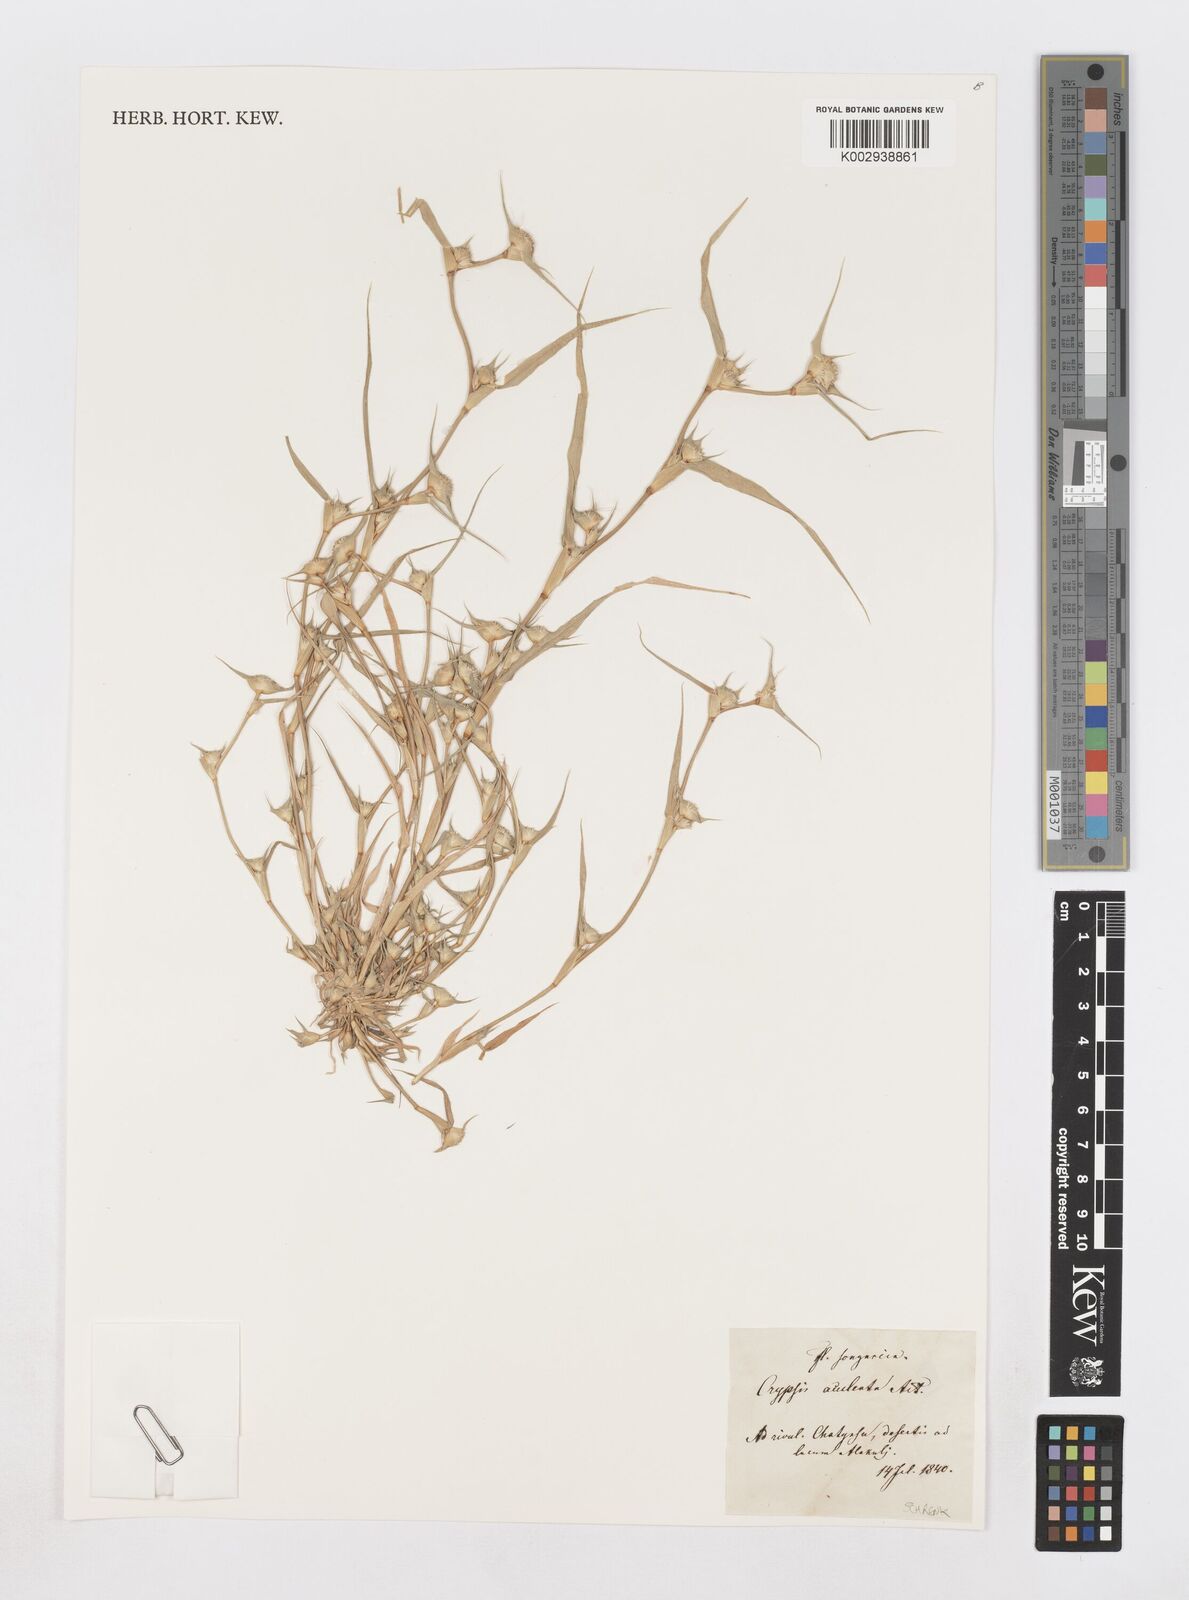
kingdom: Plantae
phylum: Tracheophyta
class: Liliopsida
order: Poales
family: Poaceae
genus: Sporobolus
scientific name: Sporobolus aculeatus
